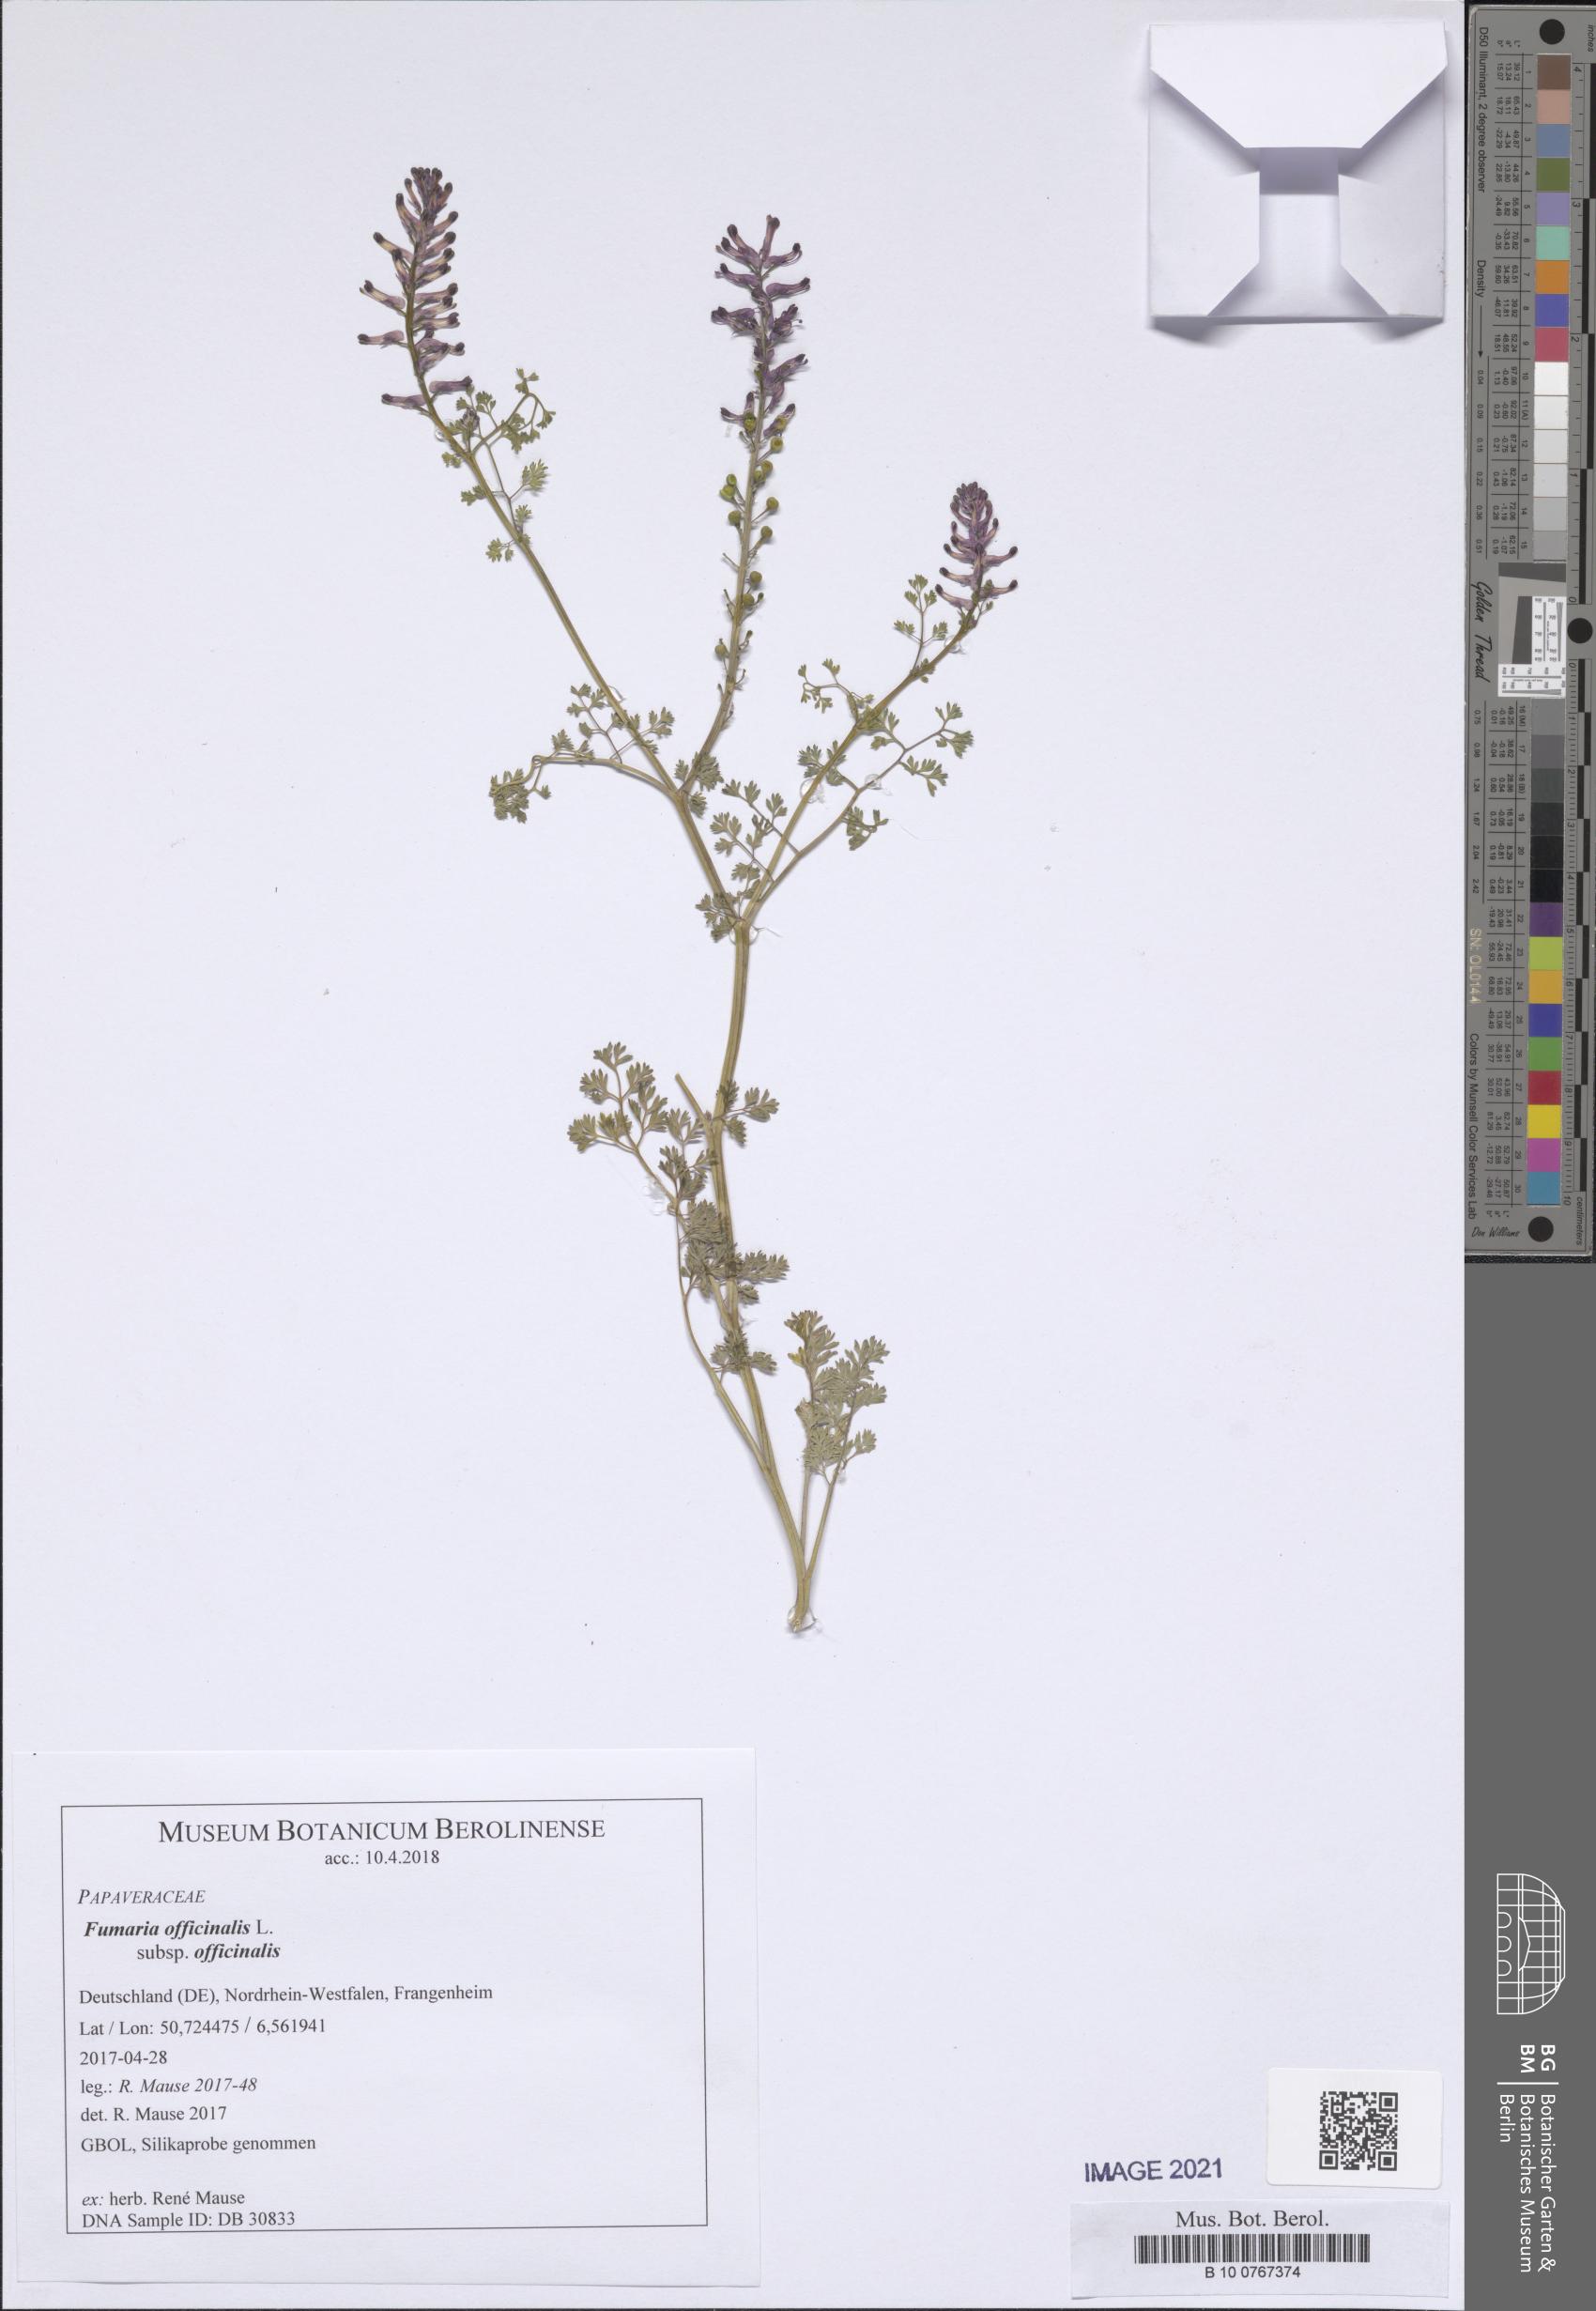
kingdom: Plantae
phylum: Tracheophyta
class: Magnoliopsida
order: Ranunculales
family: Papaveraceae
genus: Fumaria
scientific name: Fumaria officinalis
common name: Common fumitory
